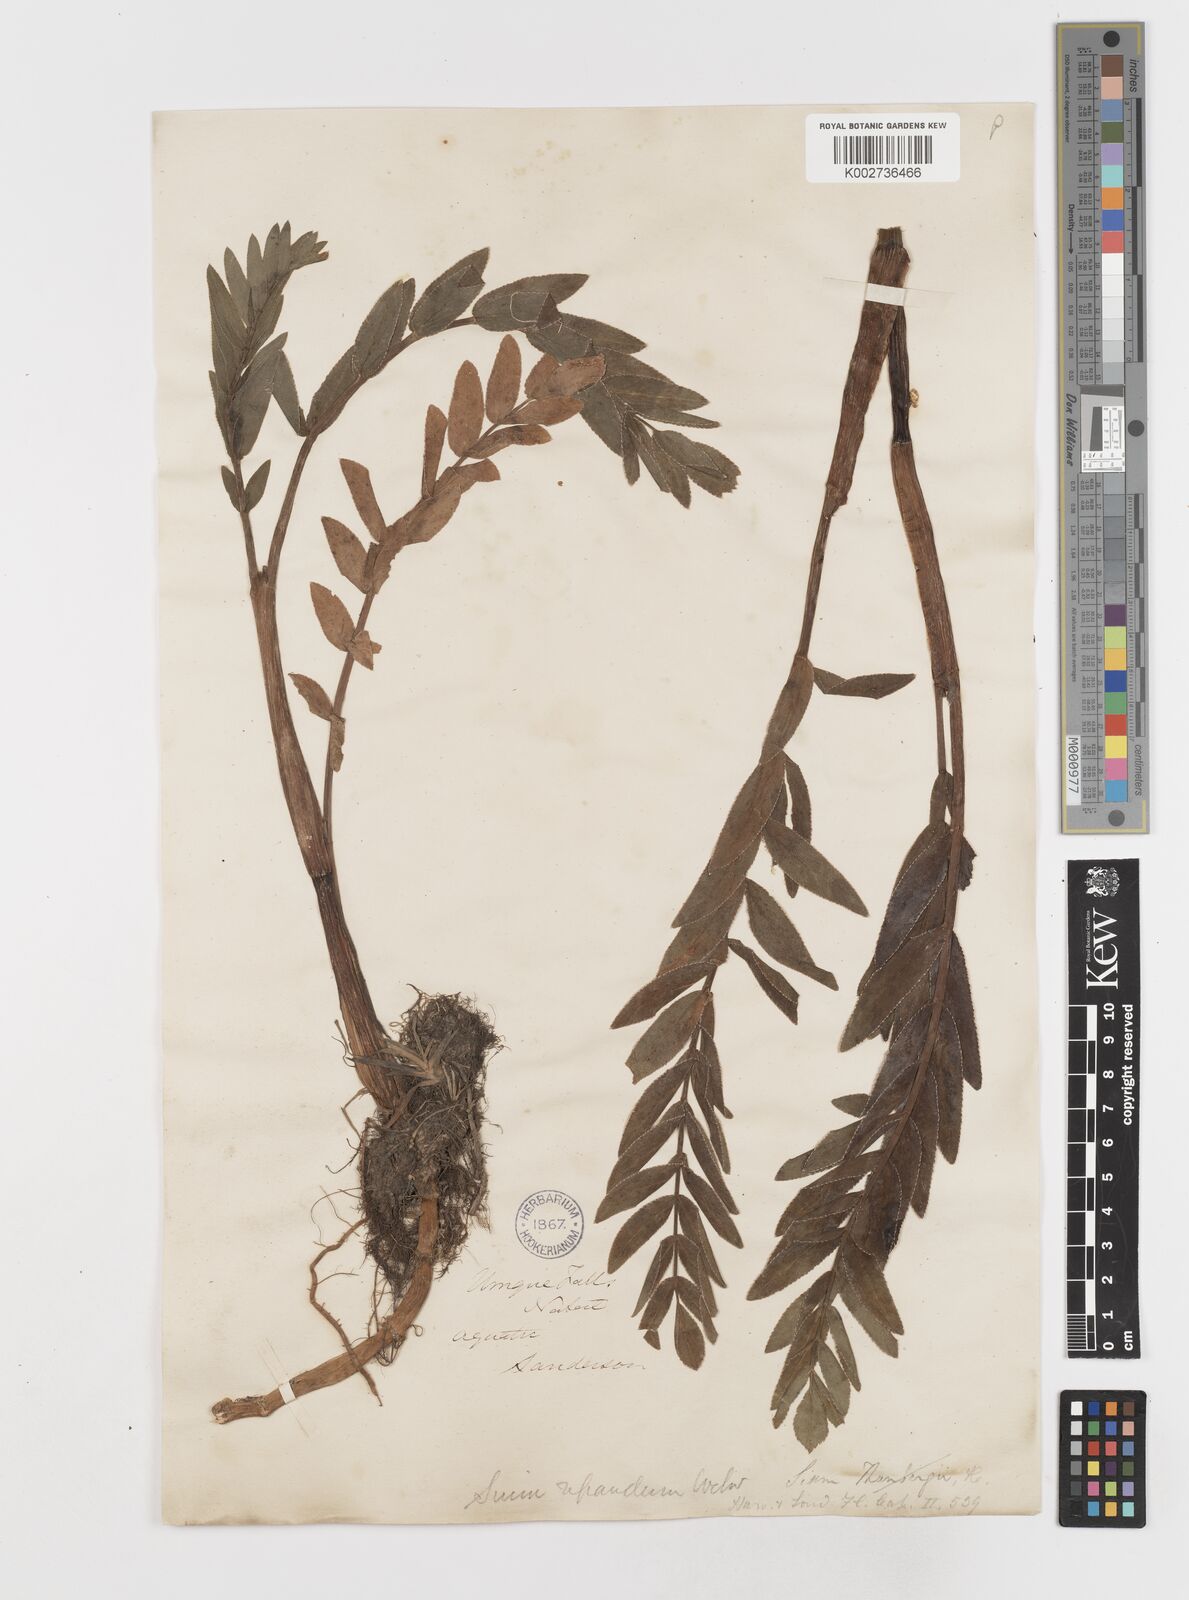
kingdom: Plantae
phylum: Tracheophyta
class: Magnoliopsida
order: Apiales
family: Apiaceae
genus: Berula
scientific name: Berula repanda
